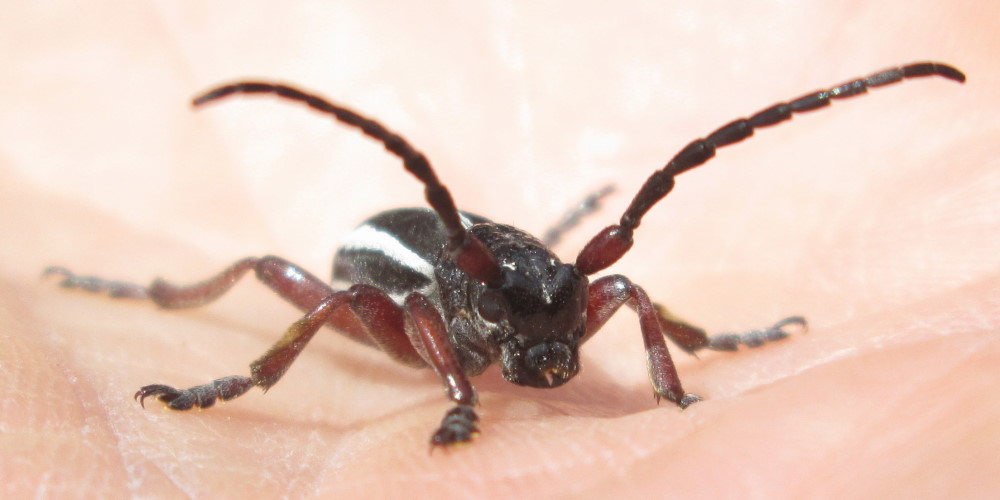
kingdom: Animalia
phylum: Arthropoda
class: Insecta
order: Coleoptera
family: Cerambycidae
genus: Dorcadion
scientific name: Dorcadion scabricolle
